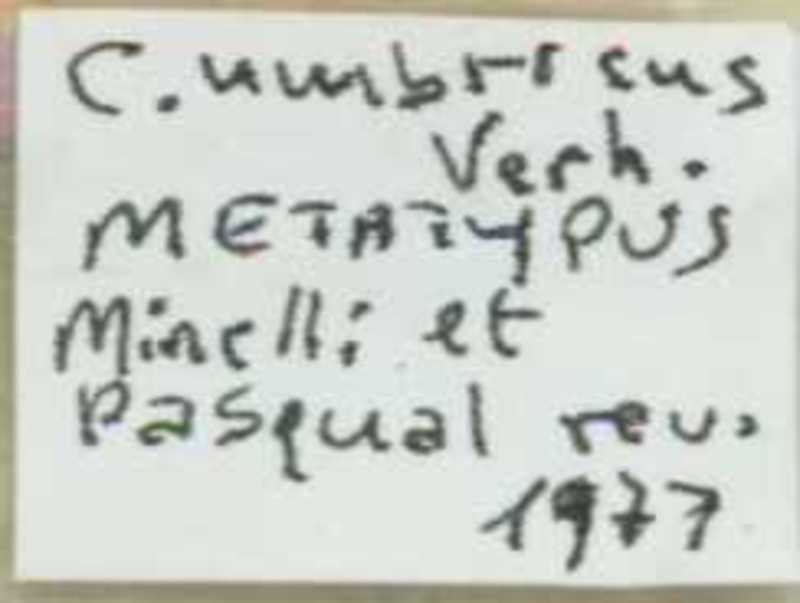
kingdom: Animalia
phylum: Arthropoda
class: Chilopoda
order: Scolopendromorpha
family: Cryptopidae
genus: Cryptops
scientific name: Cryptops umbricus
